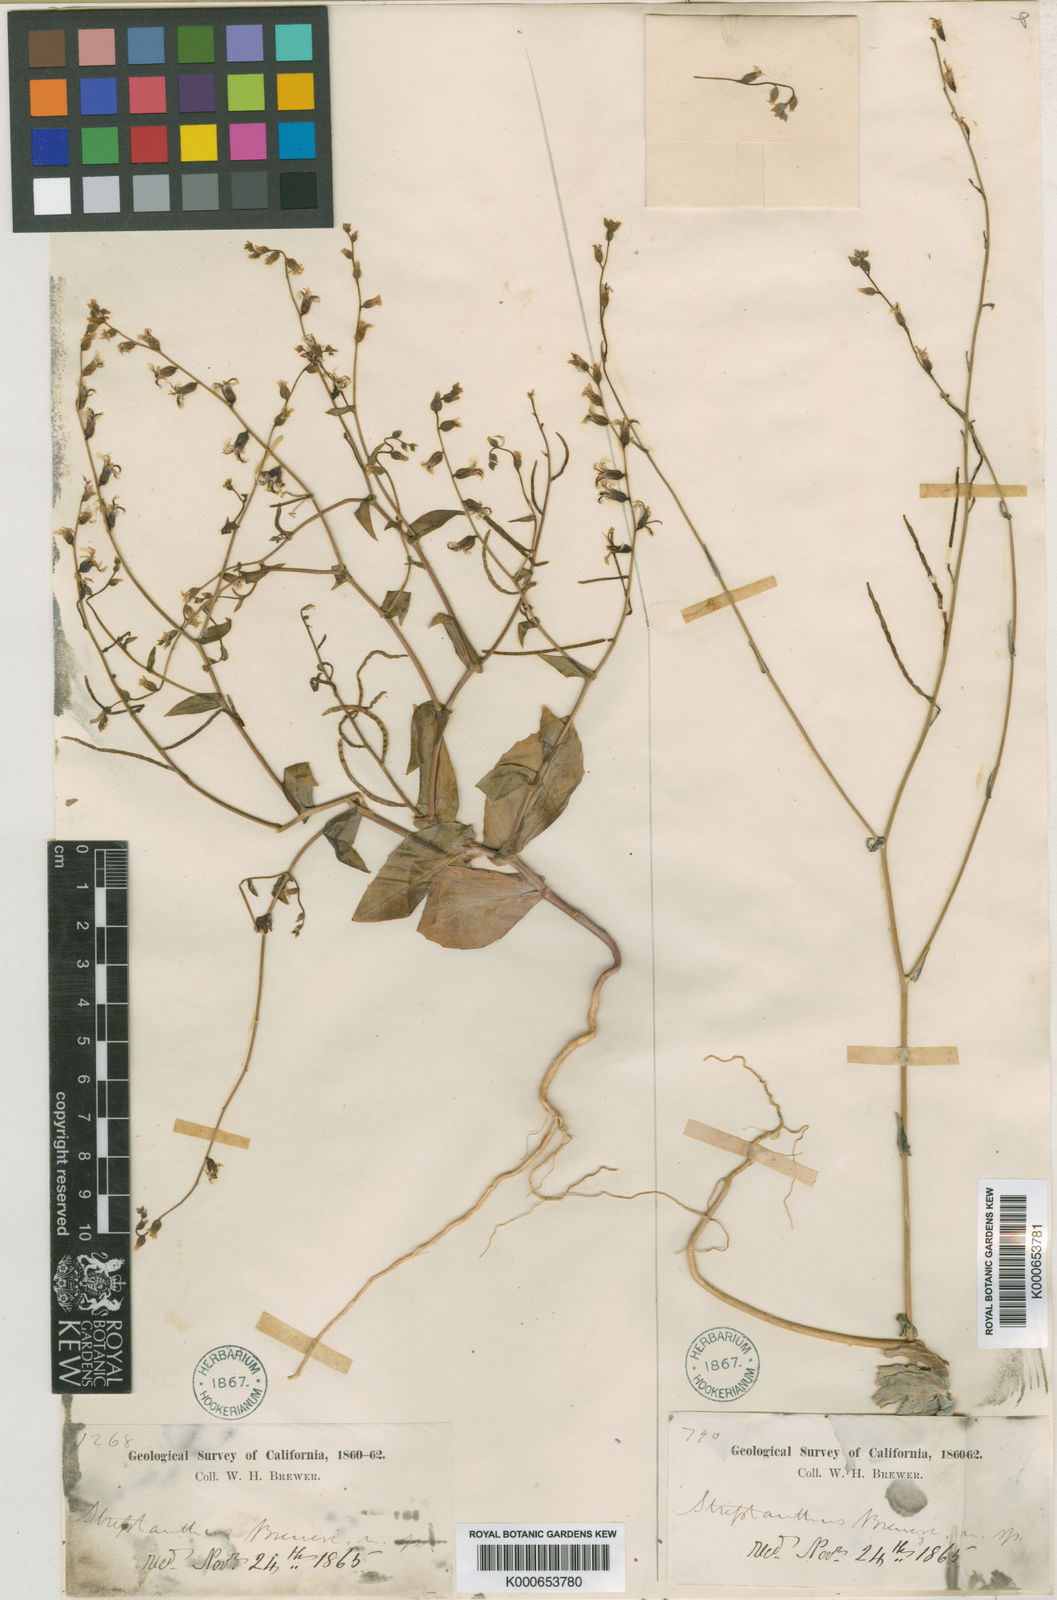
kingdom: Plantae
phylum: Tracheophyta
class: Magnoliopsida
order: Brassicales
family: Brassicaceae
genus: Streptanthus
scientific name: Streptanthus breweri
